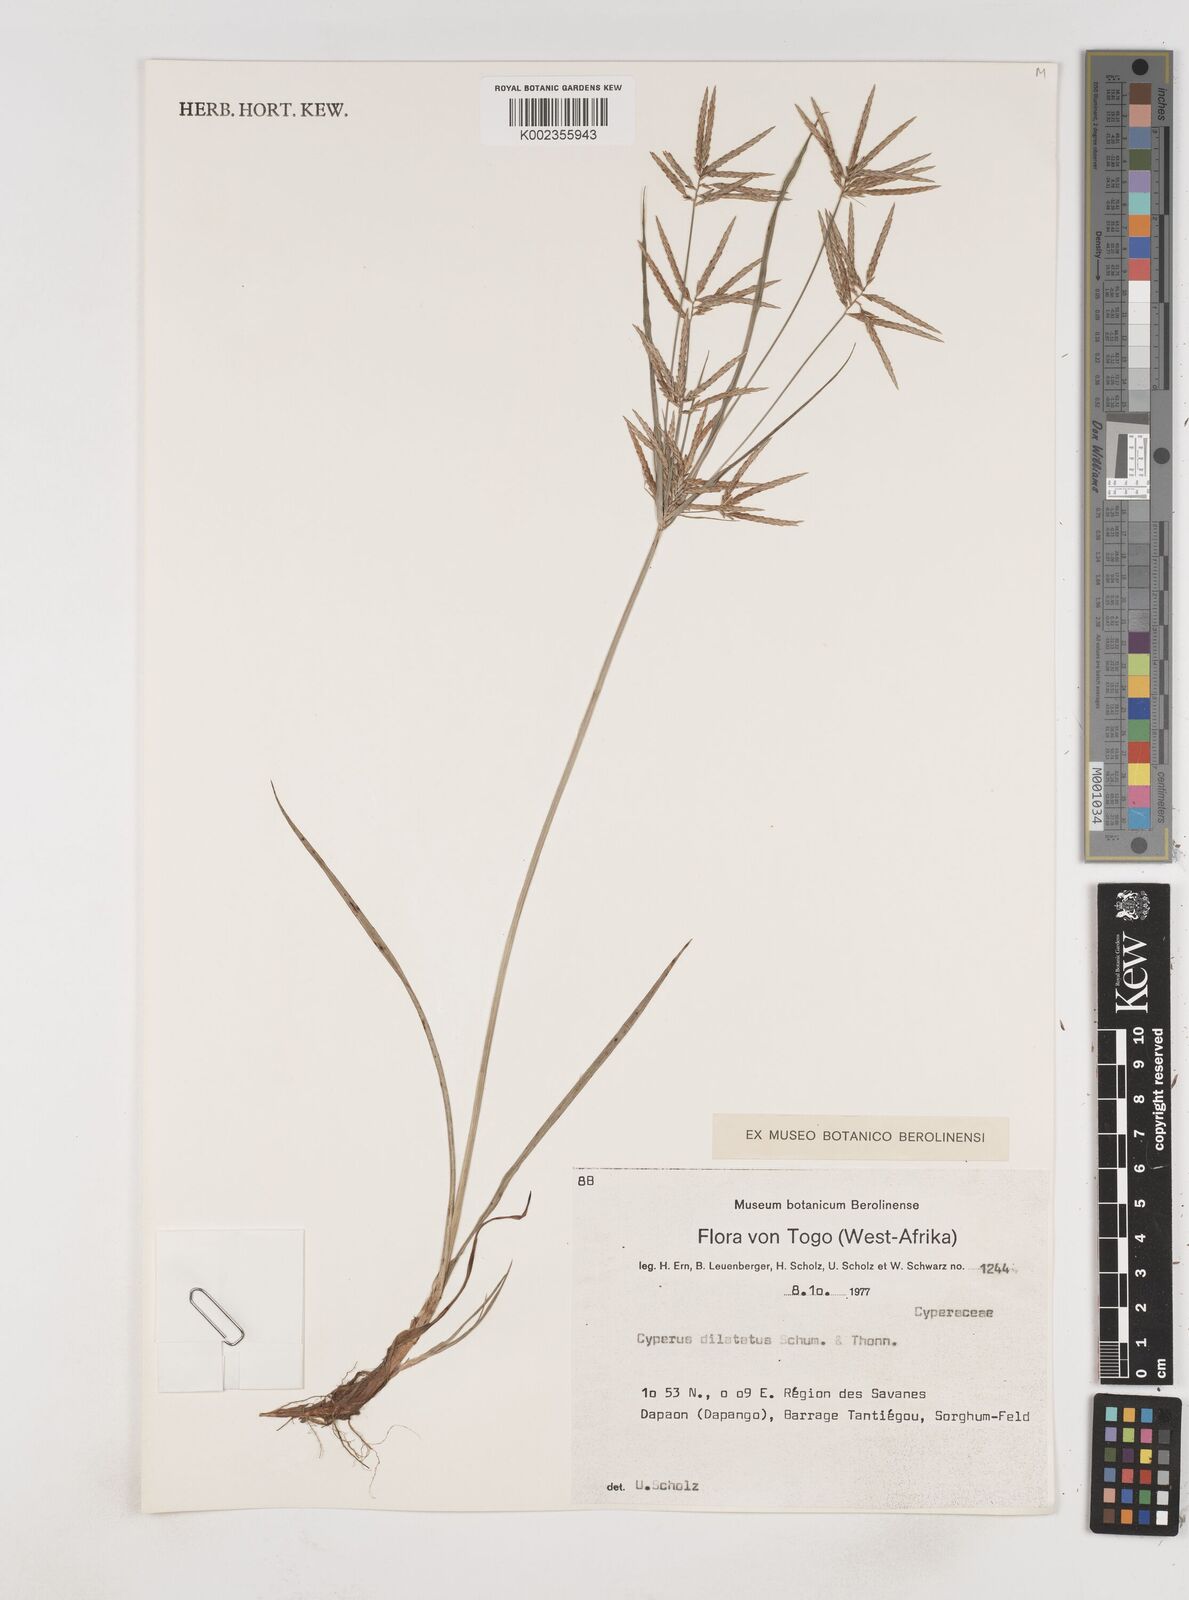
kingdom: Plantae
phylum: Tracheophyta
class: Liliopsida
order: Poales
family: Cyperaceae
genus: Cyperus
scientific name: Cyperus dilatatus
